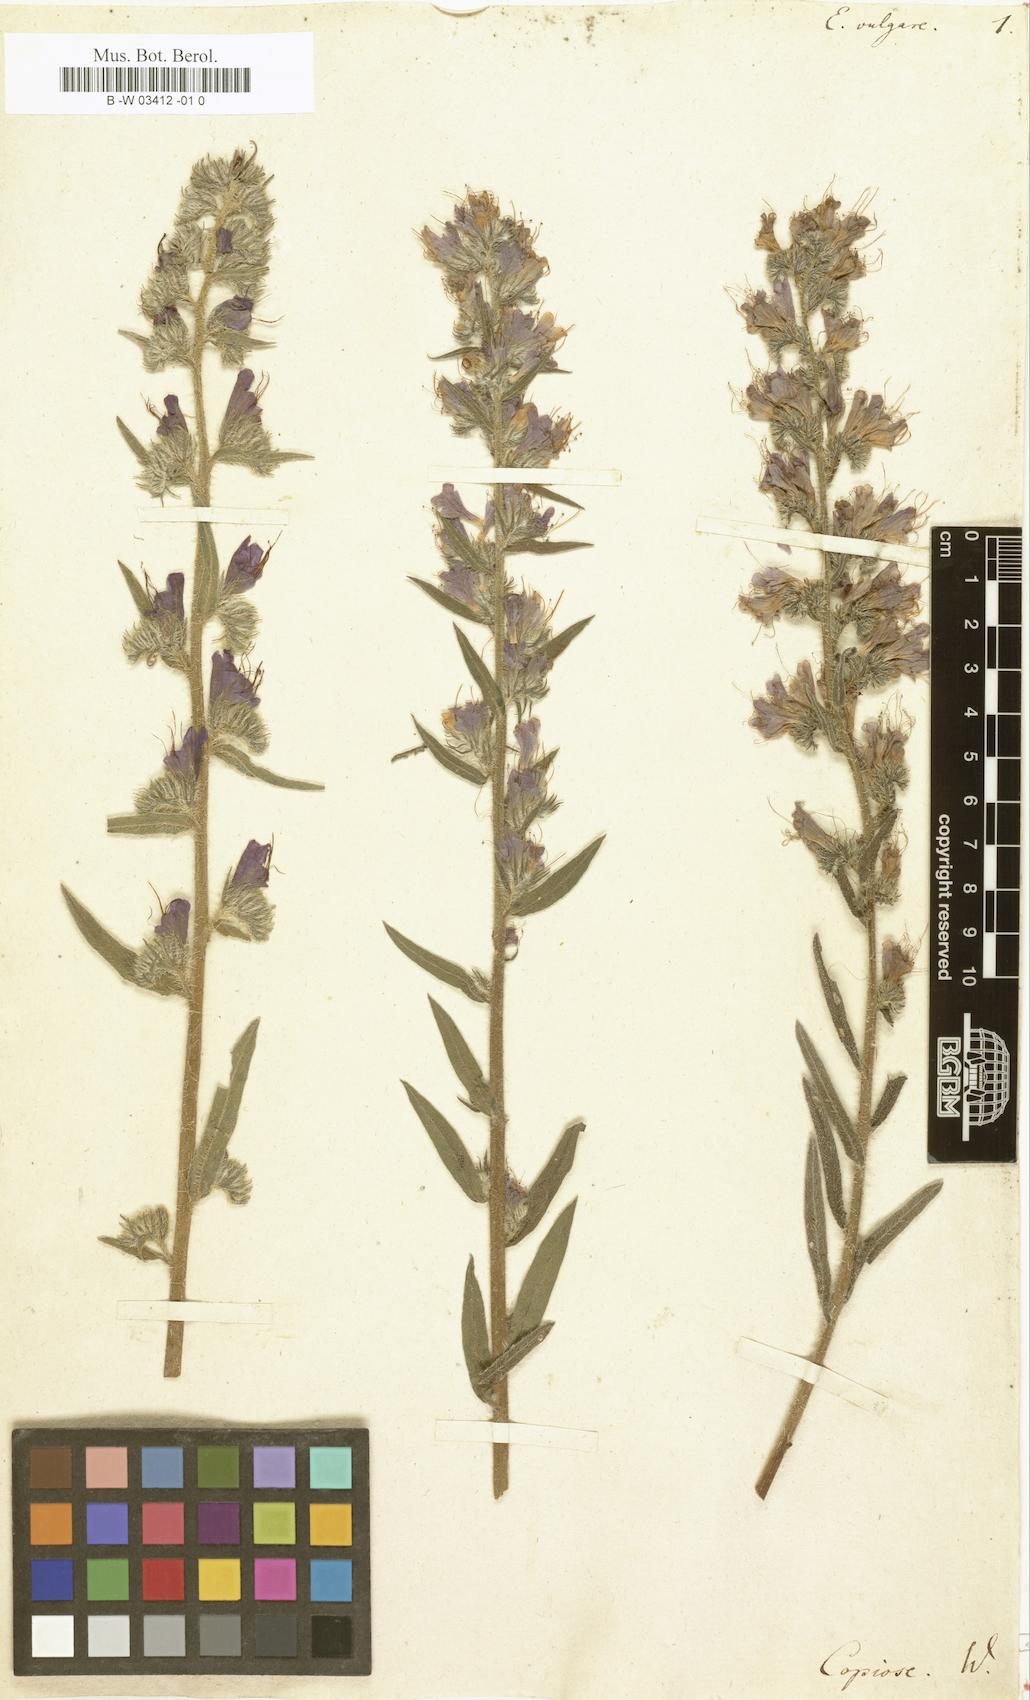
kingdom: Plantae
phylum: Tracheophyta
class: Magnoliopsida
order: Boraginales
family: Boraginaceae
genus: Echium
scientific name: Echium vulgare
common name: Common viper's bugloss
